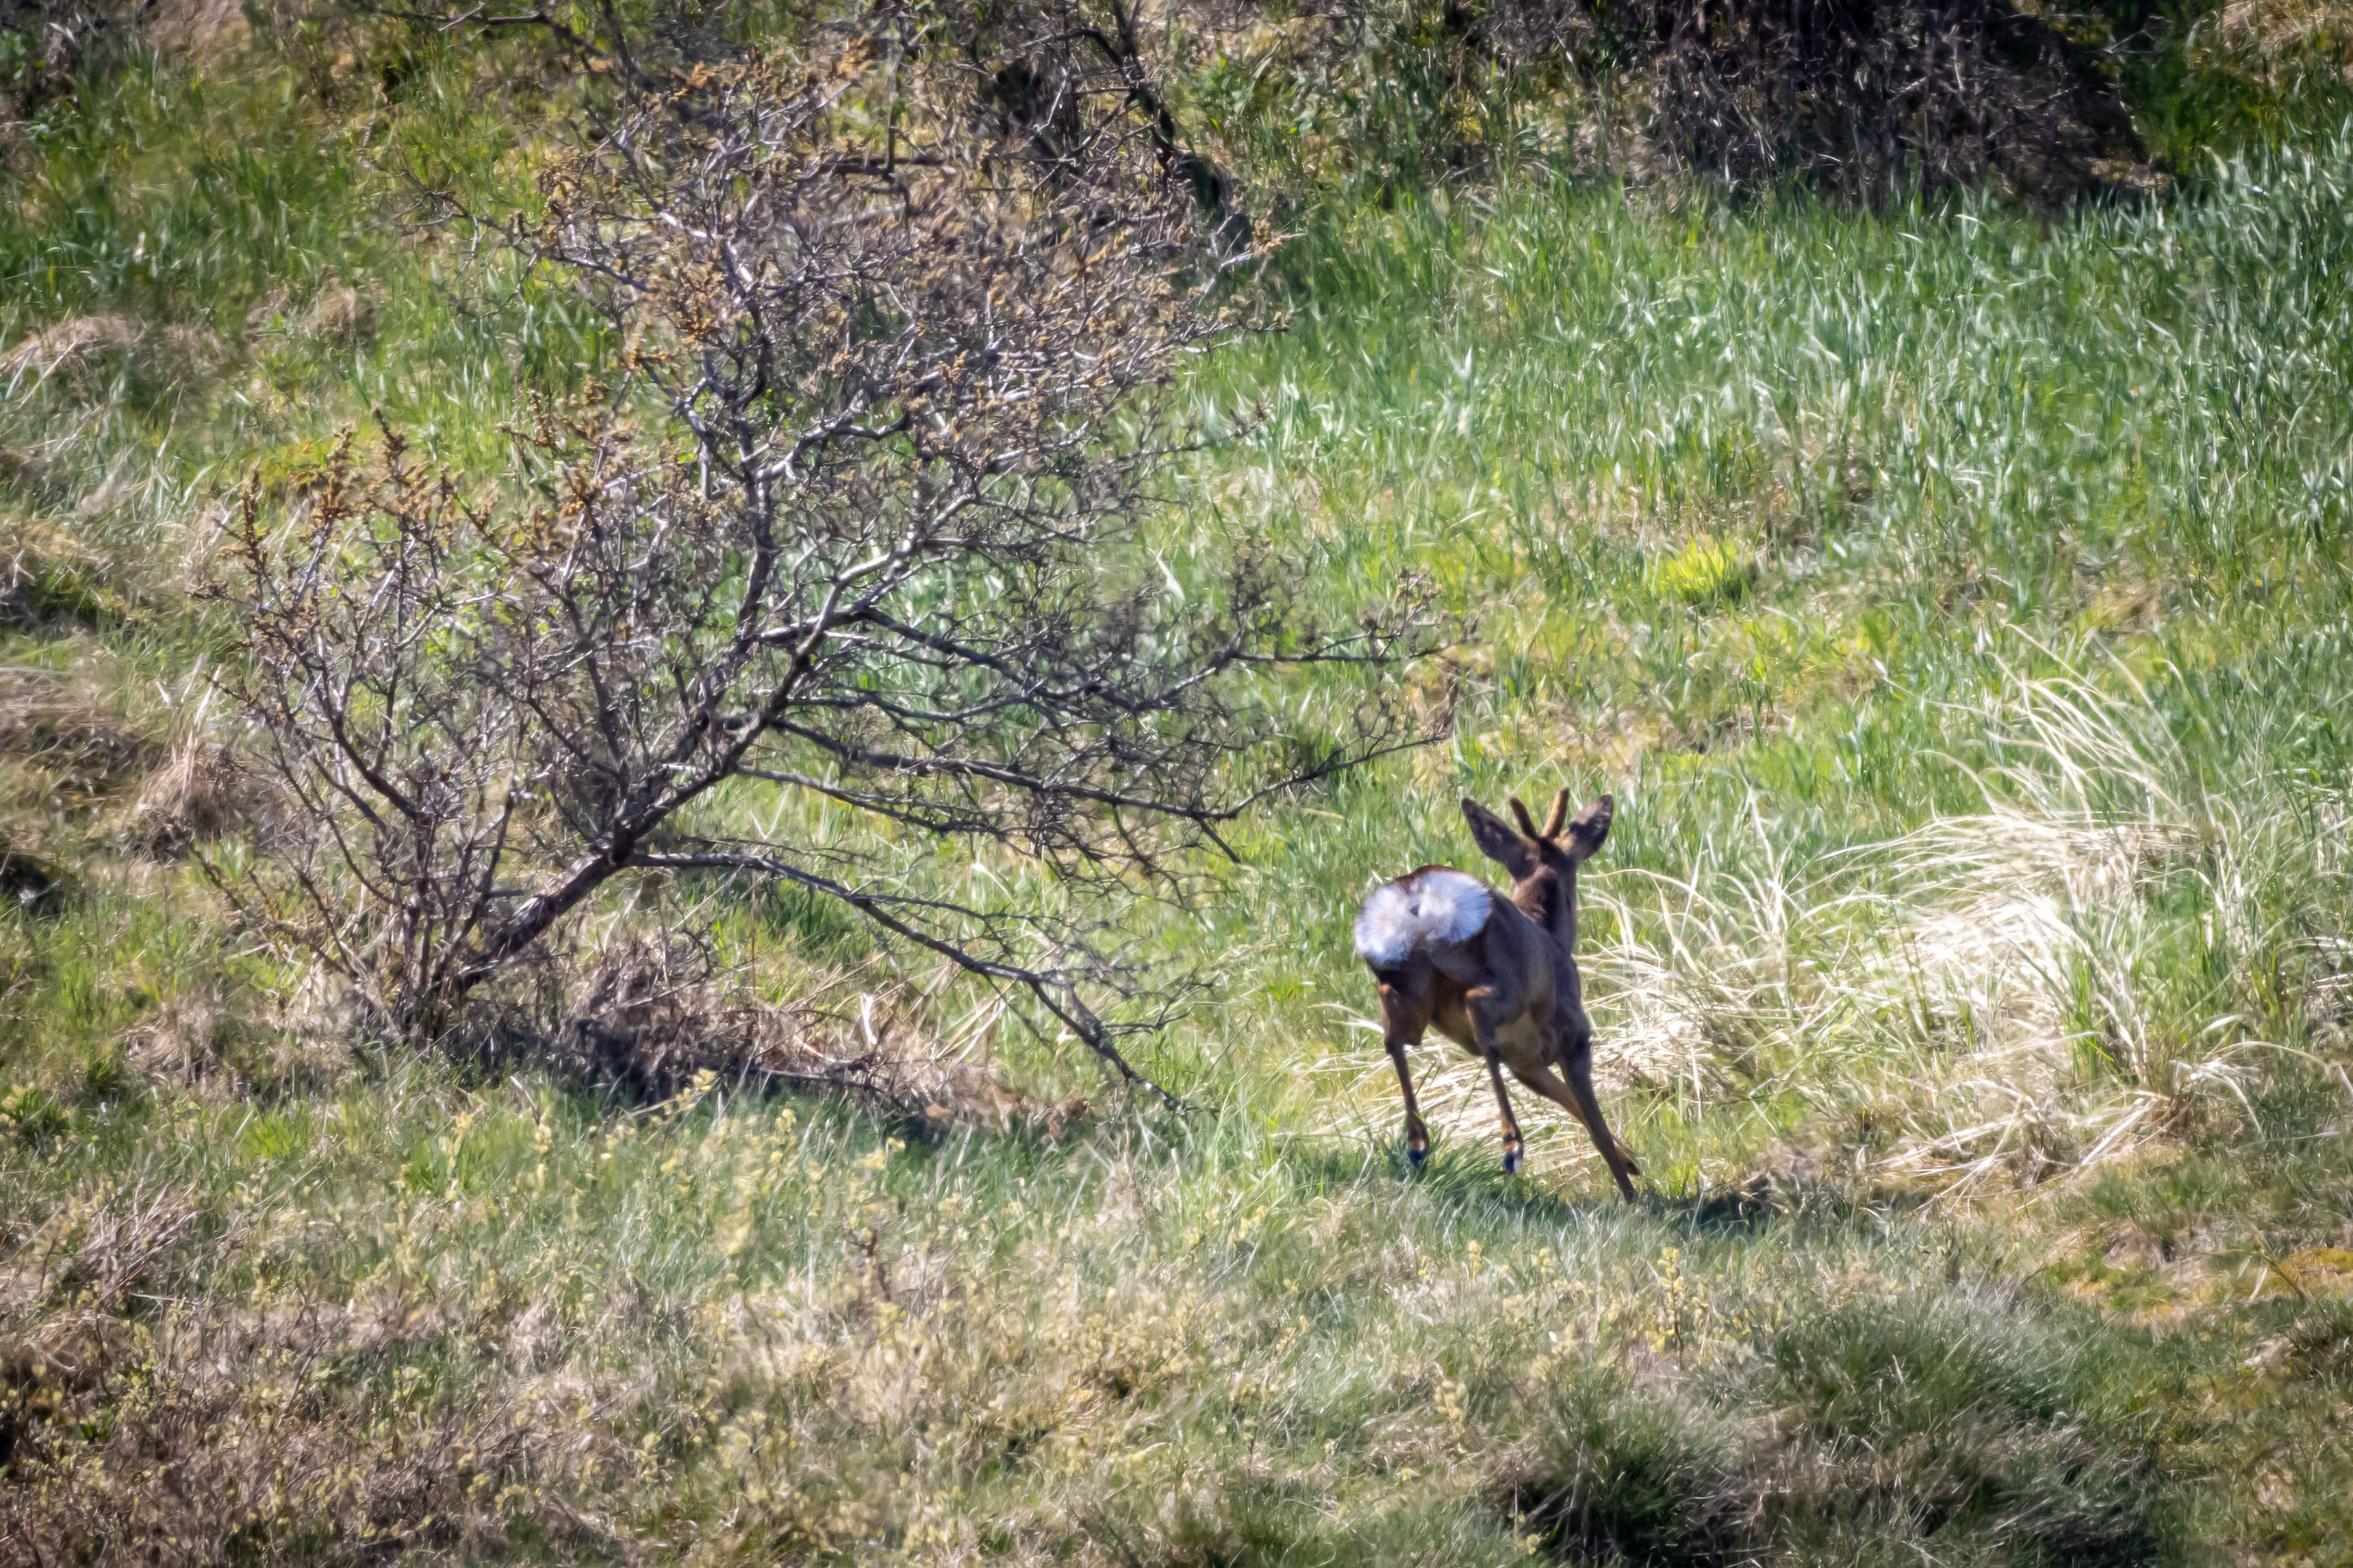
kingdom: Animalia
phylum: Chordata
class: Mammalia
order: Artiodactyla
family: Cervidae
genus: Capreolus
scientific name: Capreolus capreolus
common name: Rådyr
